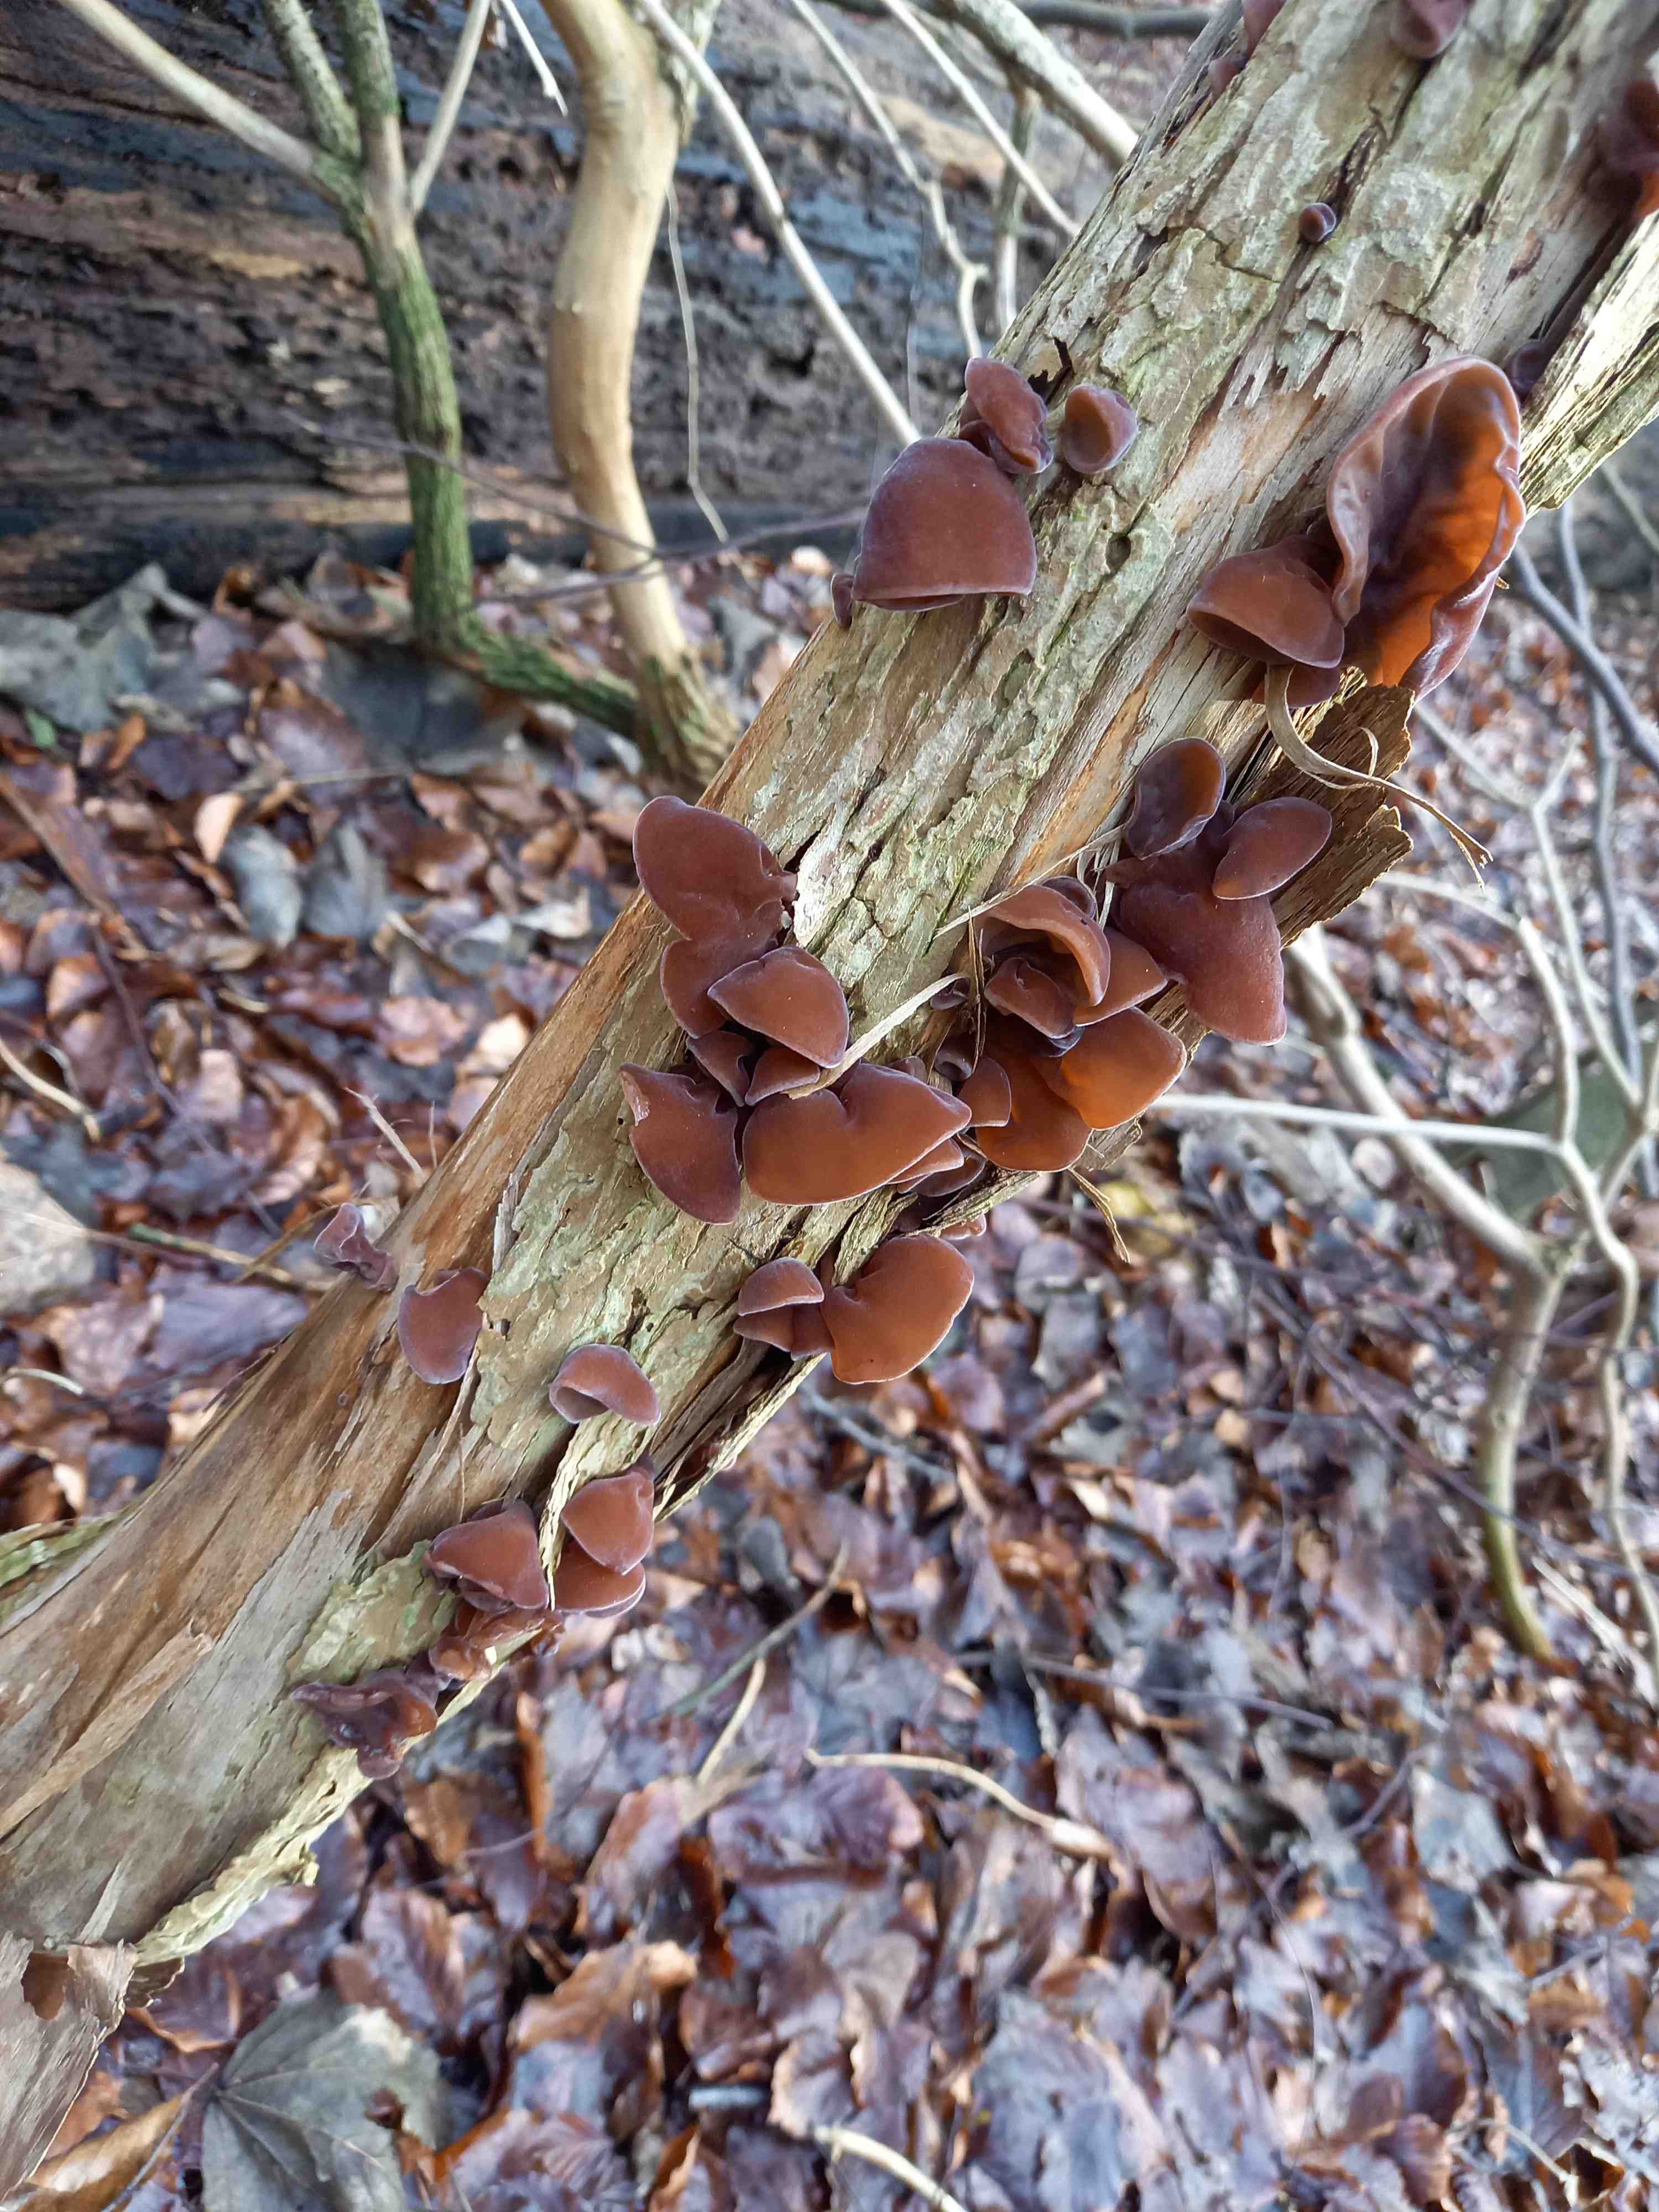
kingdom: Fungi
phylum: Basidiomycota
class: Agaricomycetes
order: Auriculariales
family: Auriculariaceae
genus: Auricularia
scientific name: Auricularia auricula-judae
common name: almindelig judasøre
